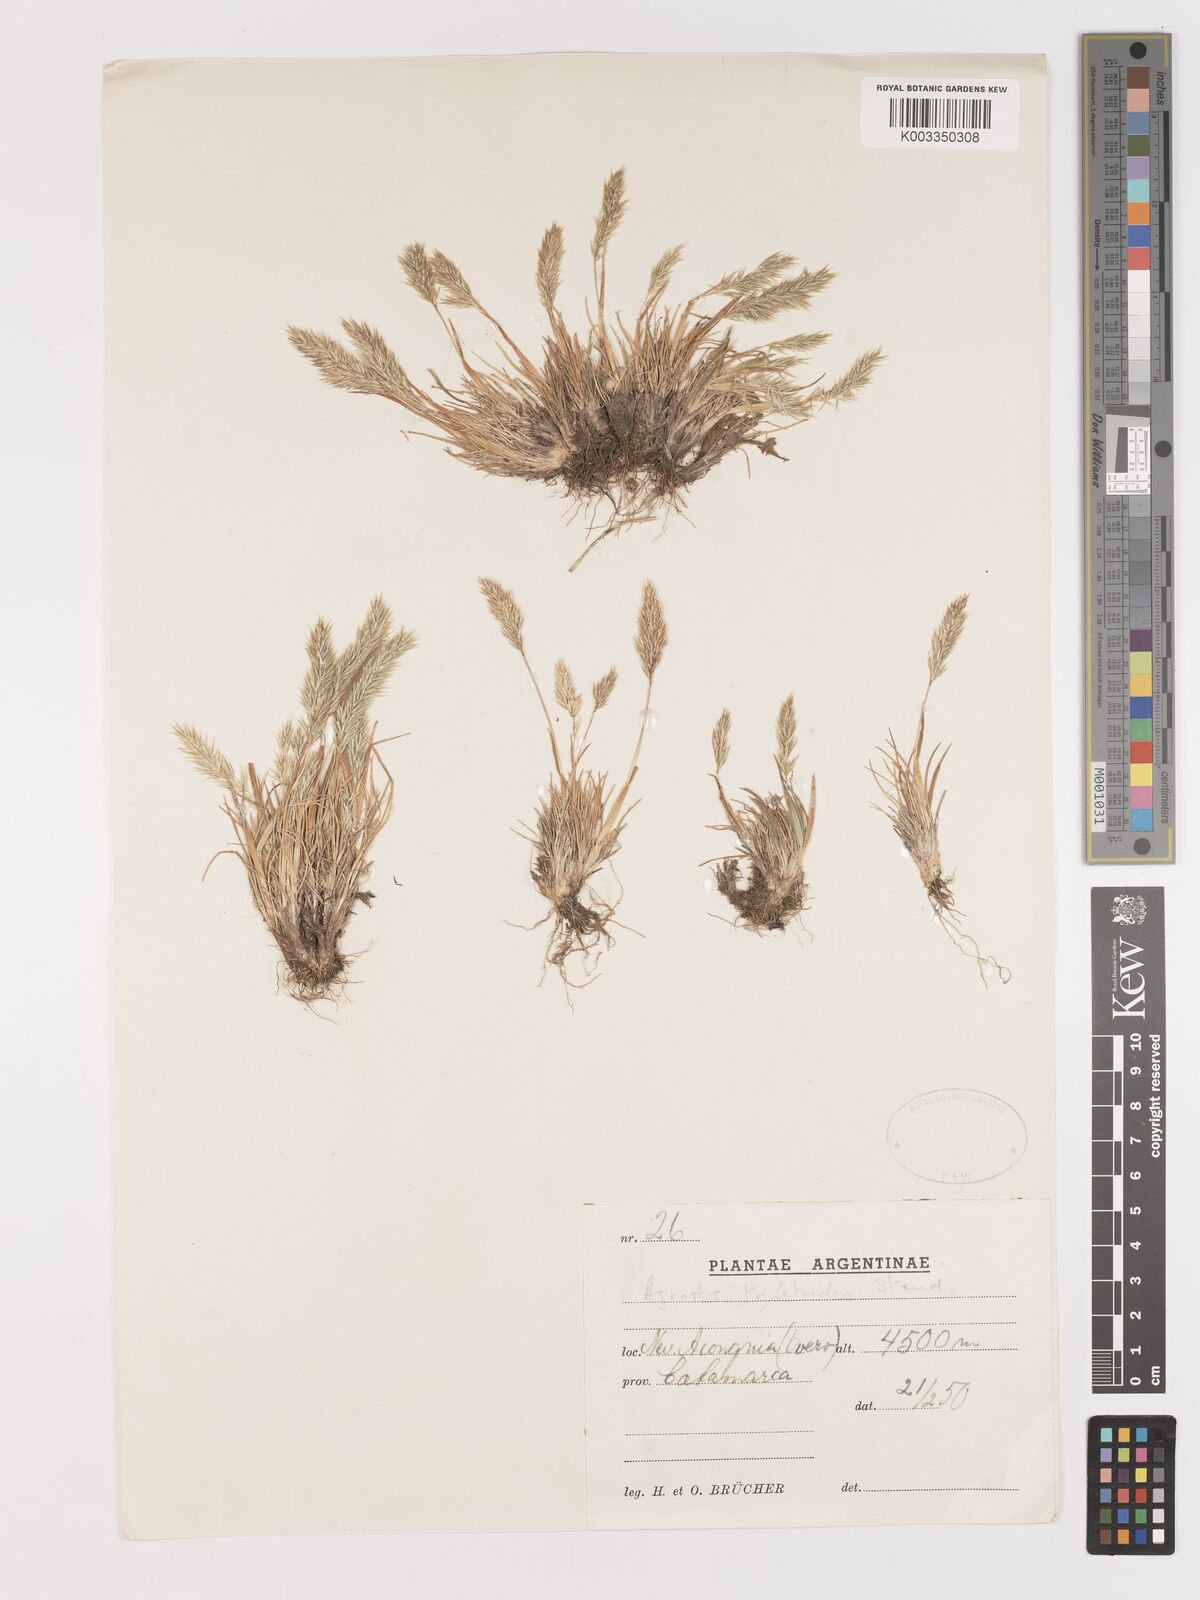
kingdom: Plantae
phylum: Tracheophyta
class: Liliopsida
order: Poales
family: Poaceae
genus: Agrostis
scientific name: Agrostis trisetoides
